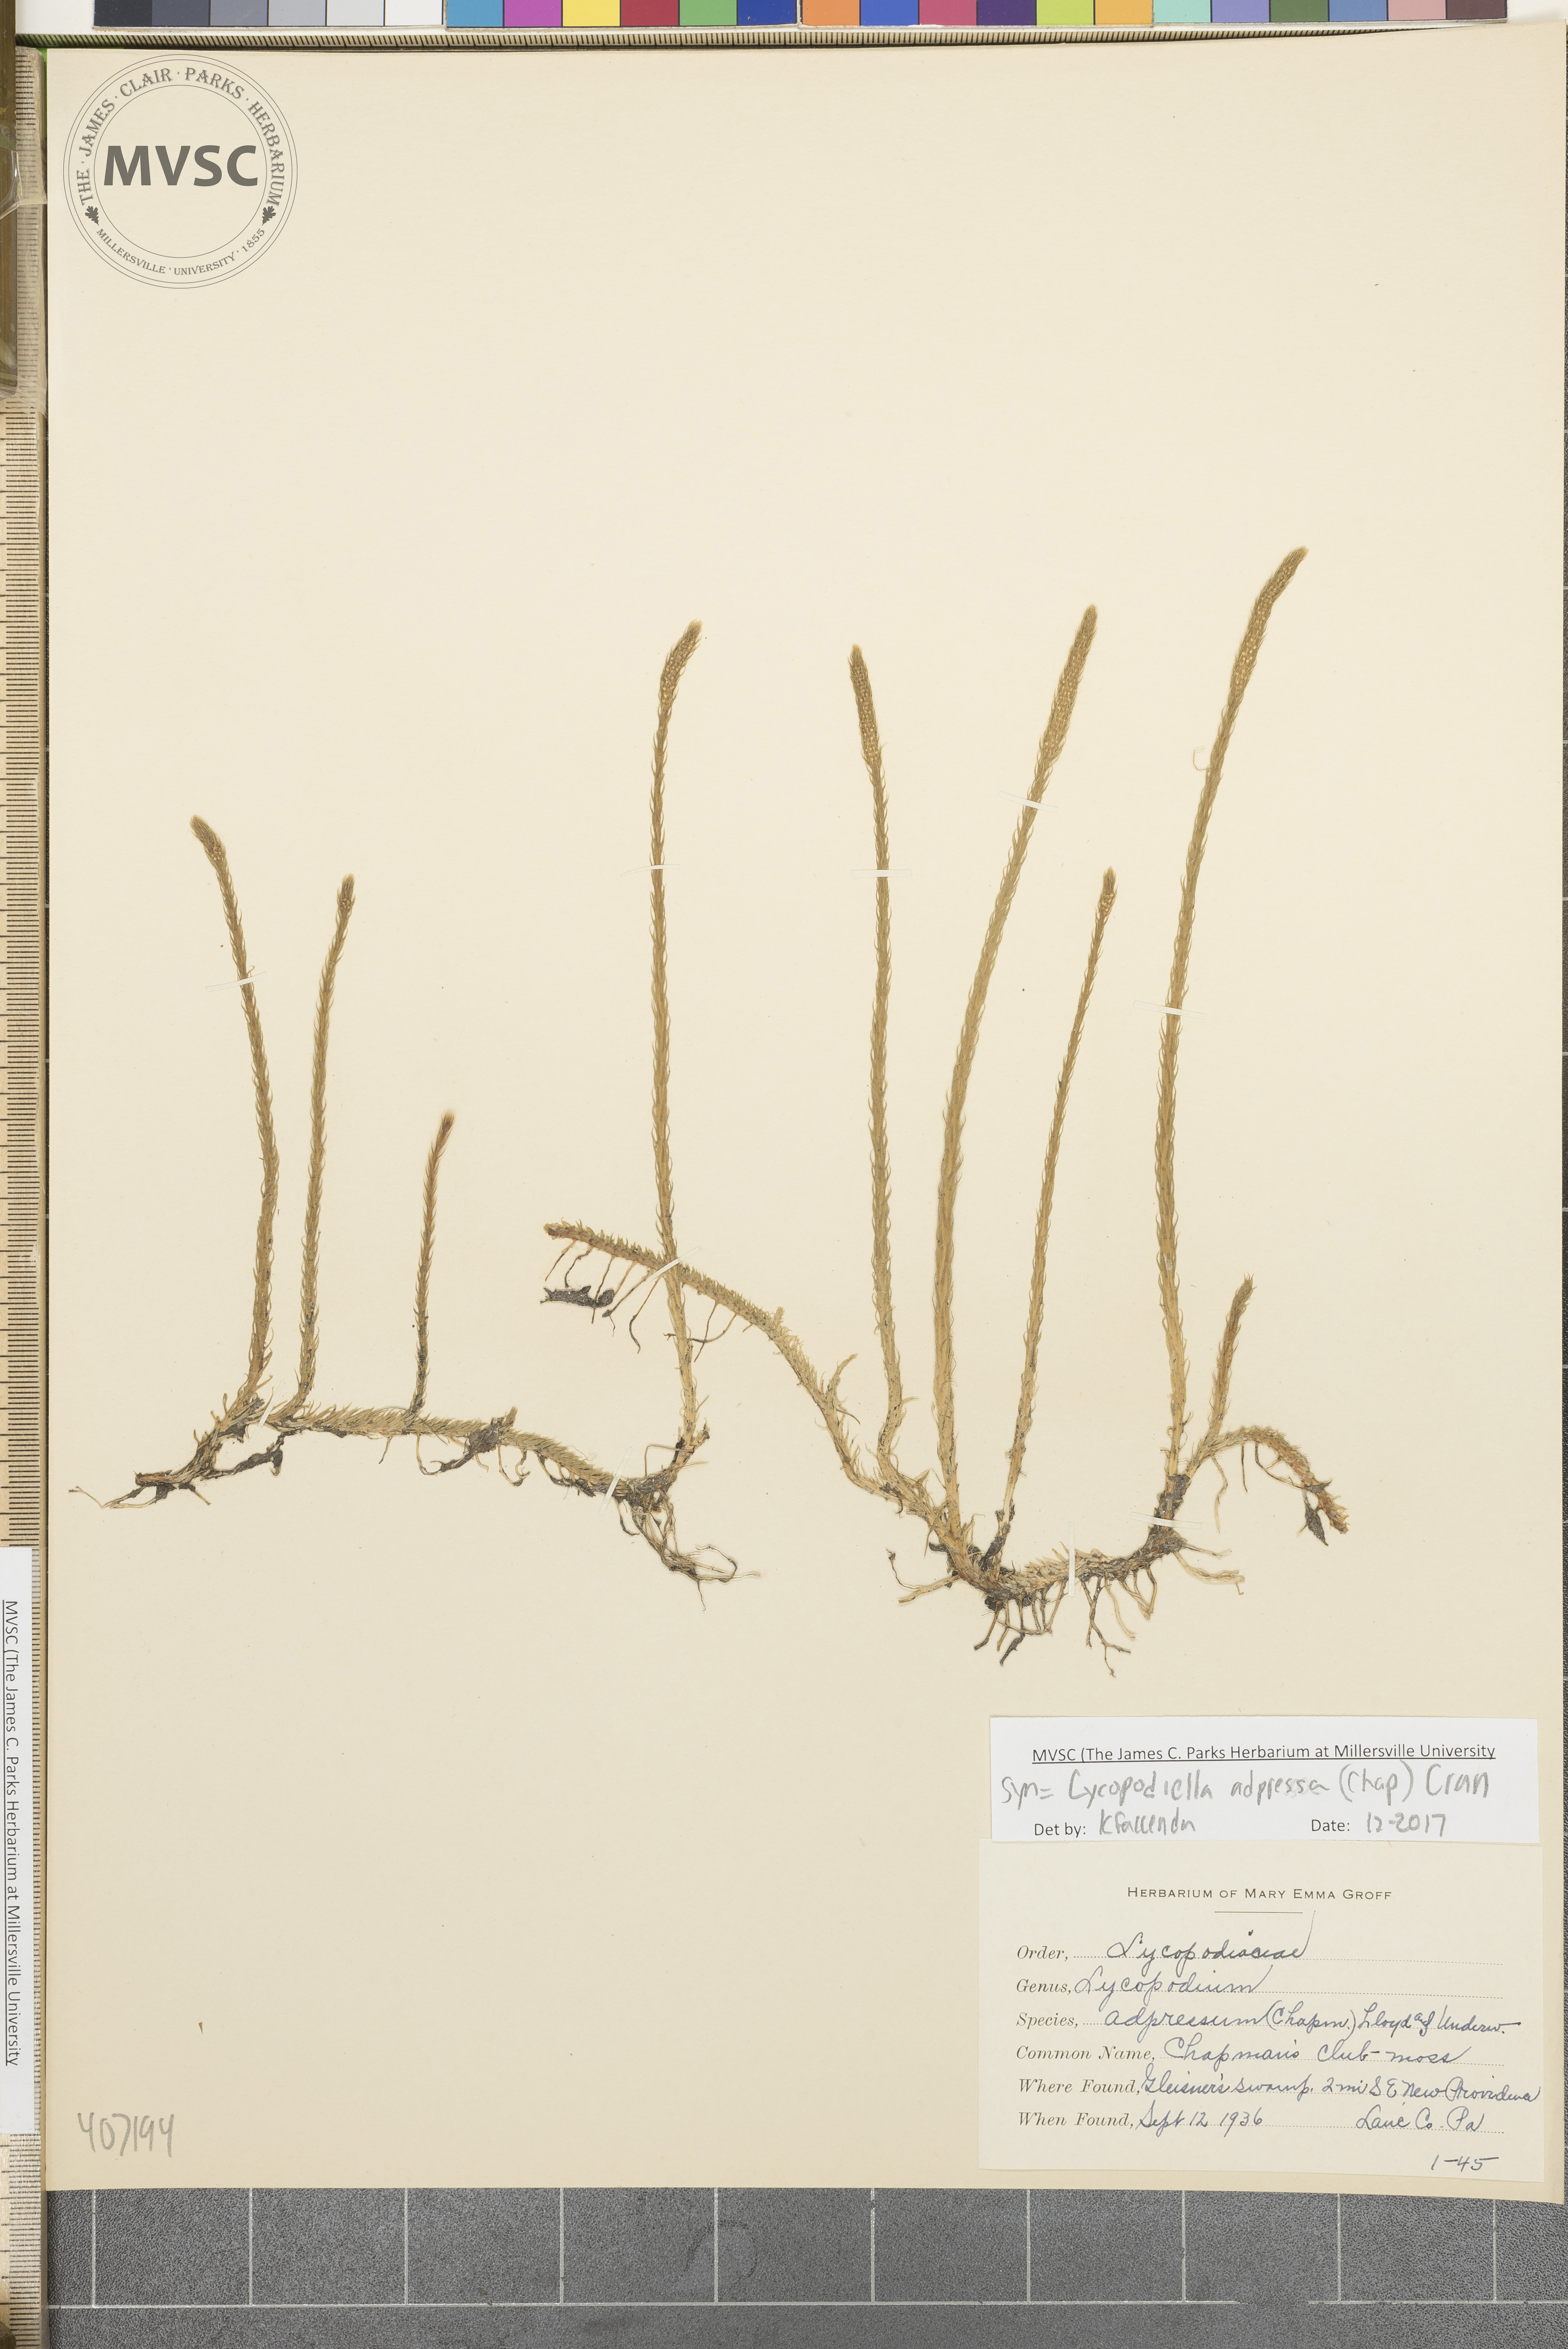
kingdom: Plantae
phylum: Tracheophyta
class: Lycopodiopsida
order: Lycopodiales
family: Lycopodiaceae
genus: Lycopodiella
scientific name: Lycopodiella appressa
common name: southern bog clubmoss
